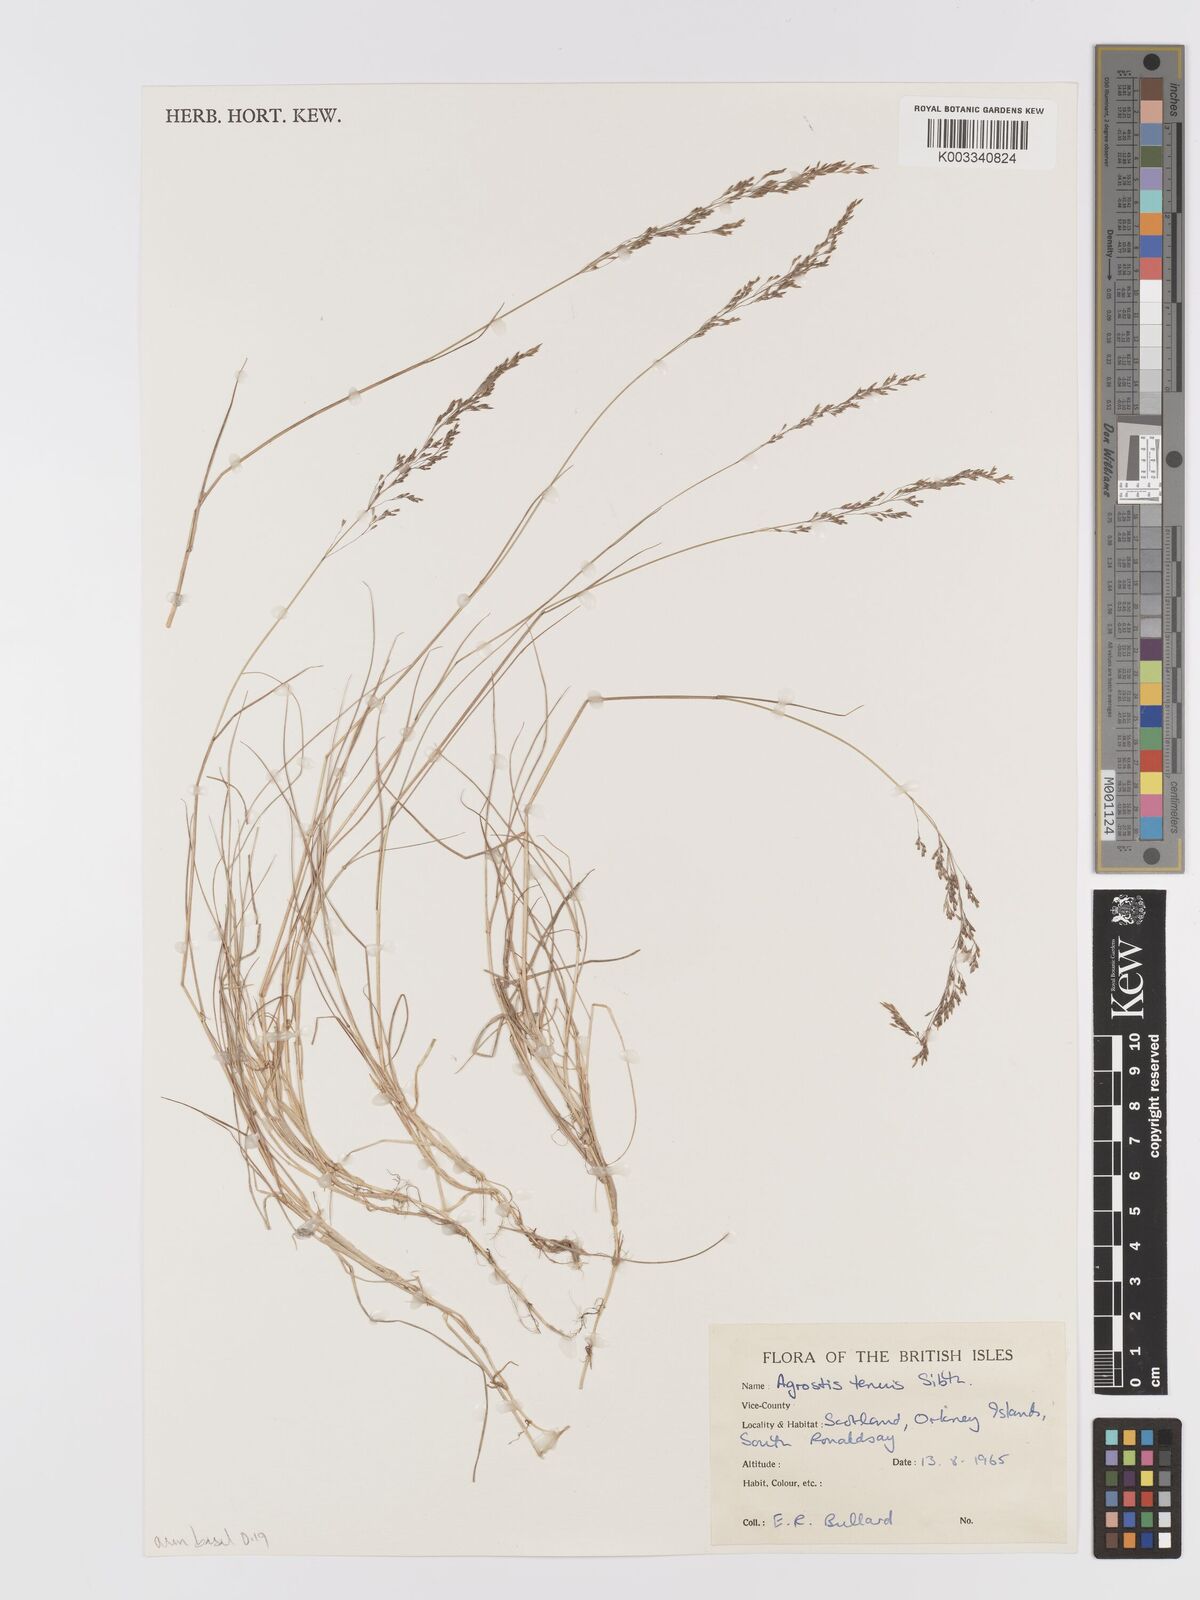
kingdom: Plantae
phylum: Tracheophyta
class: Liliopsida
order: Poales
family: Poaceae
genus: Agrostis
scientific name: Agrostis capillaris
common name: Colonial bentgrass
